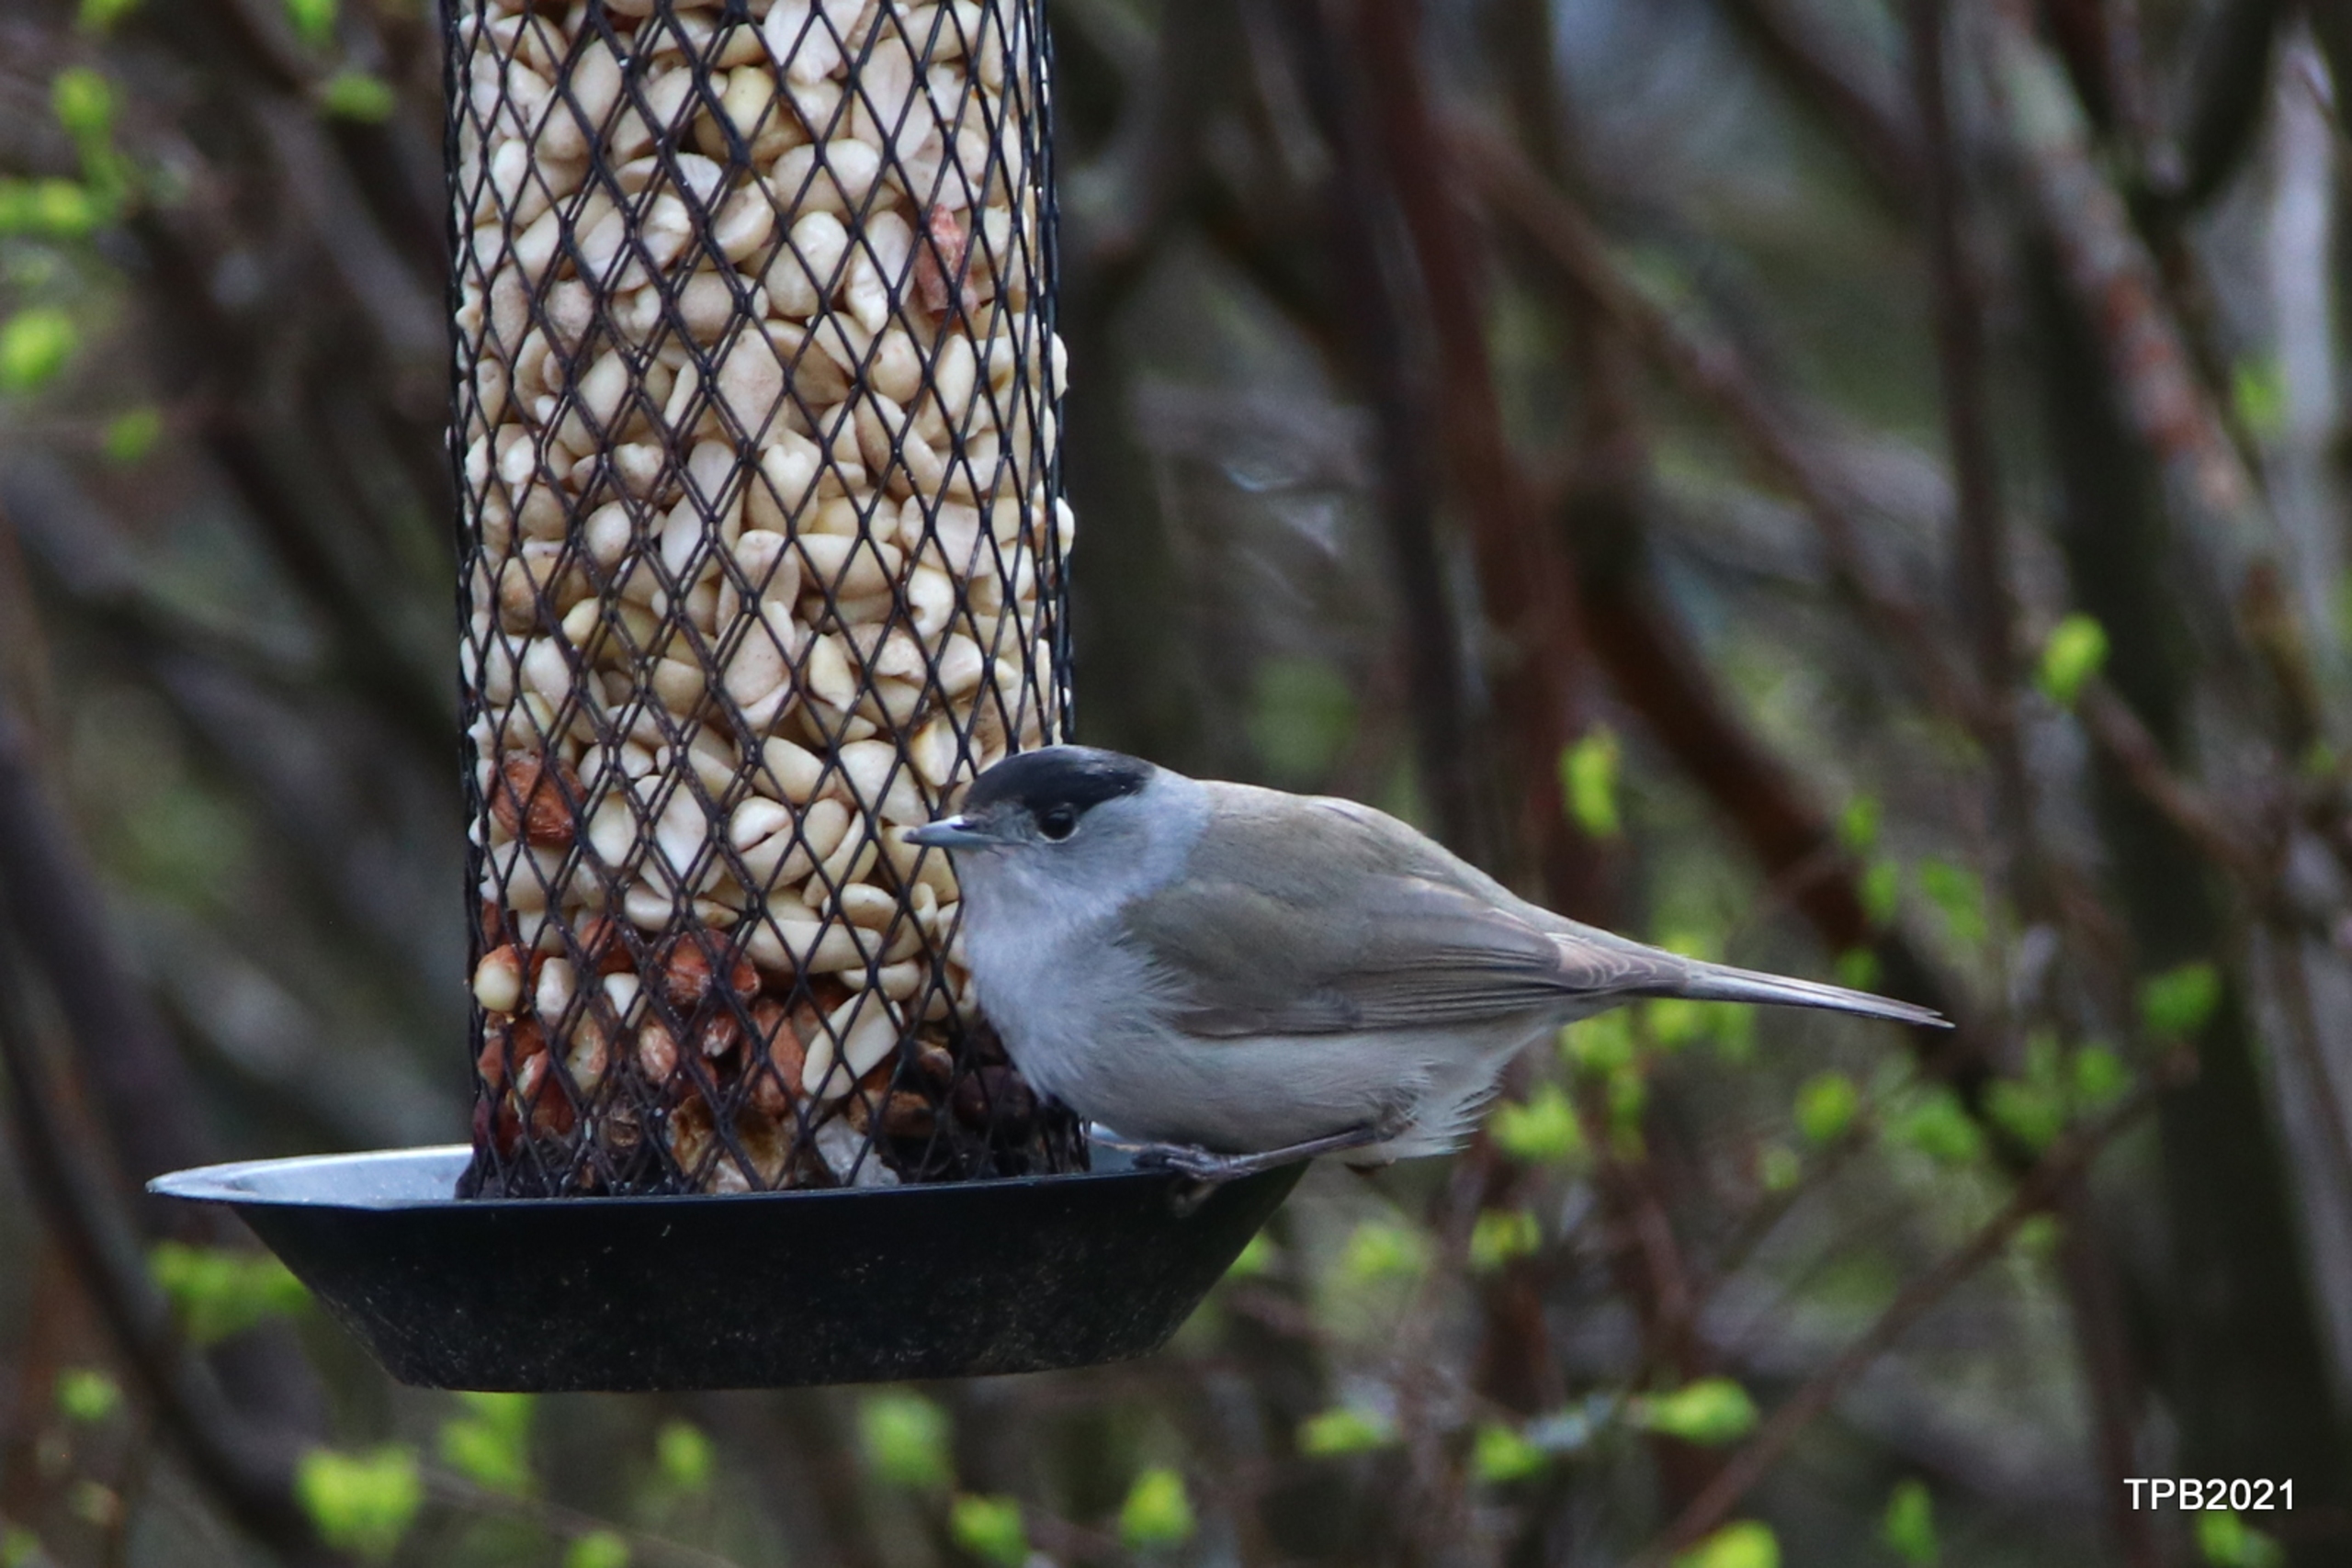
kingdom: Animalia
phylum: Chordata
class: Aves
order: Passeriformes
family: Sylviidae
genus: Sylvia
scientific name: Sylvia atricapilla
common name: Munk
